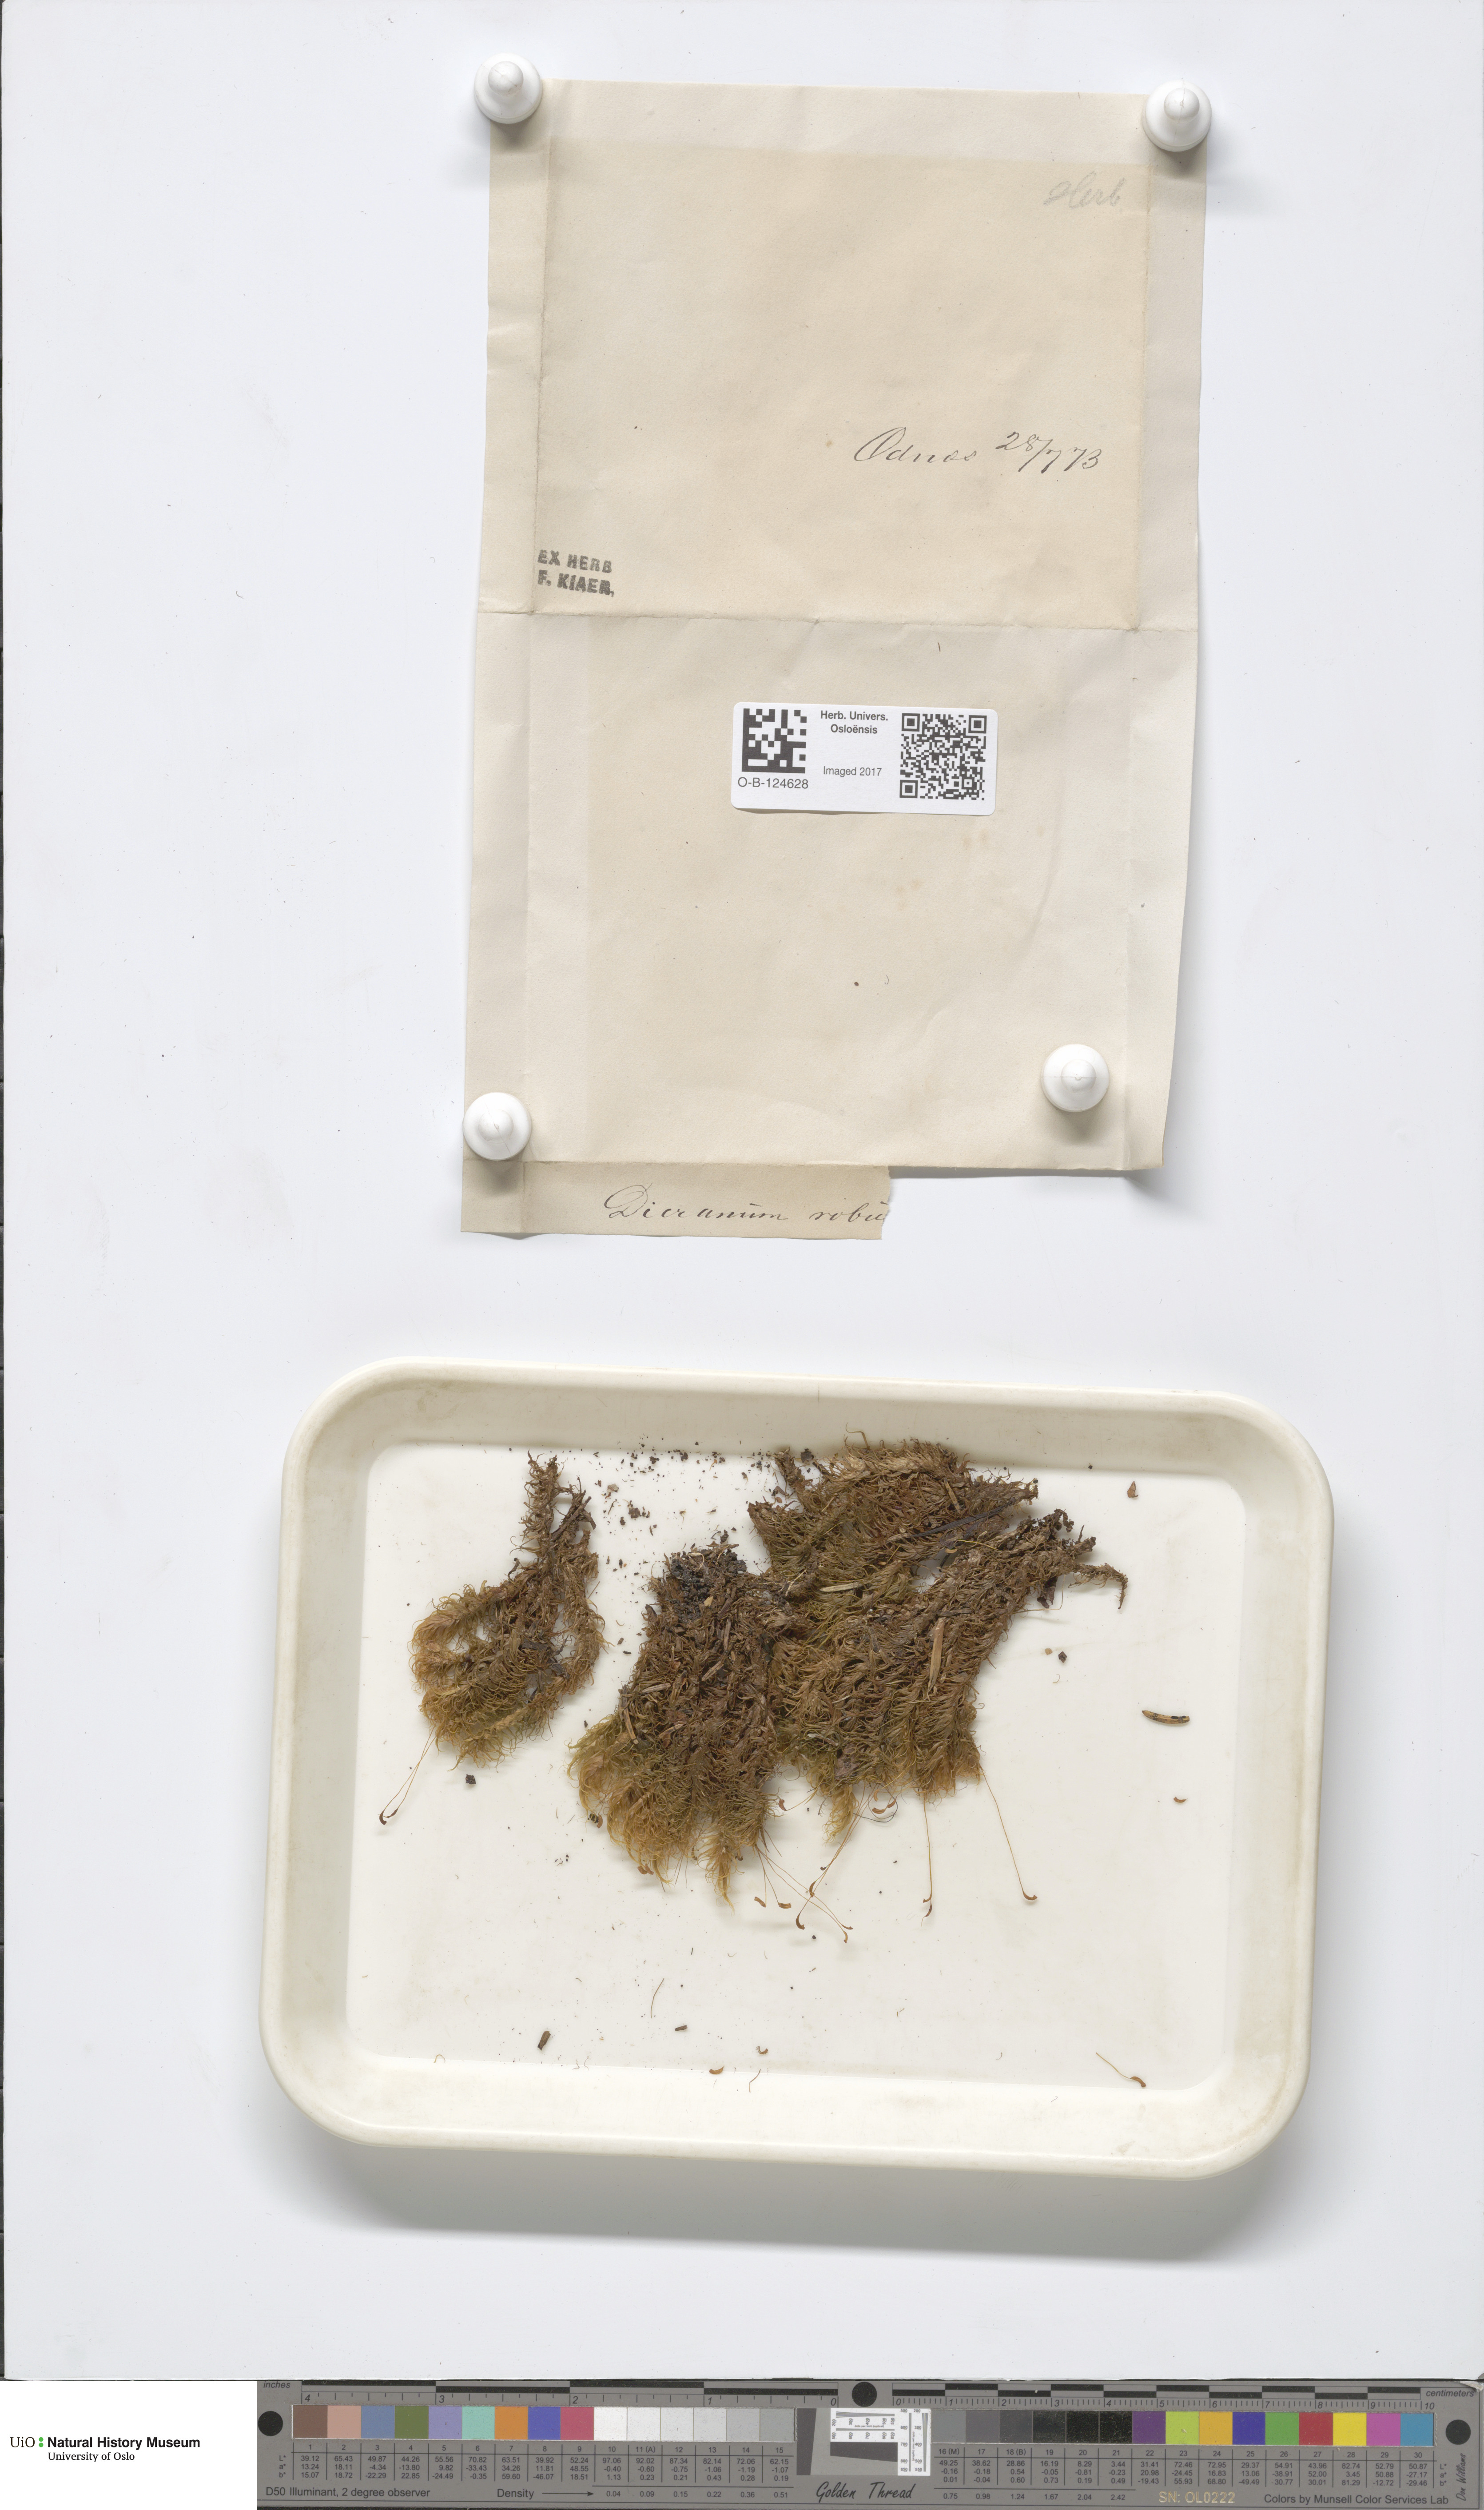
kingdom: Plantae
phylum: Bryophyta
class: Bryopsida
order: Dicranales
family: Dicranaceae
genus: Dicranum
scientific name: Dicranum drummondii
